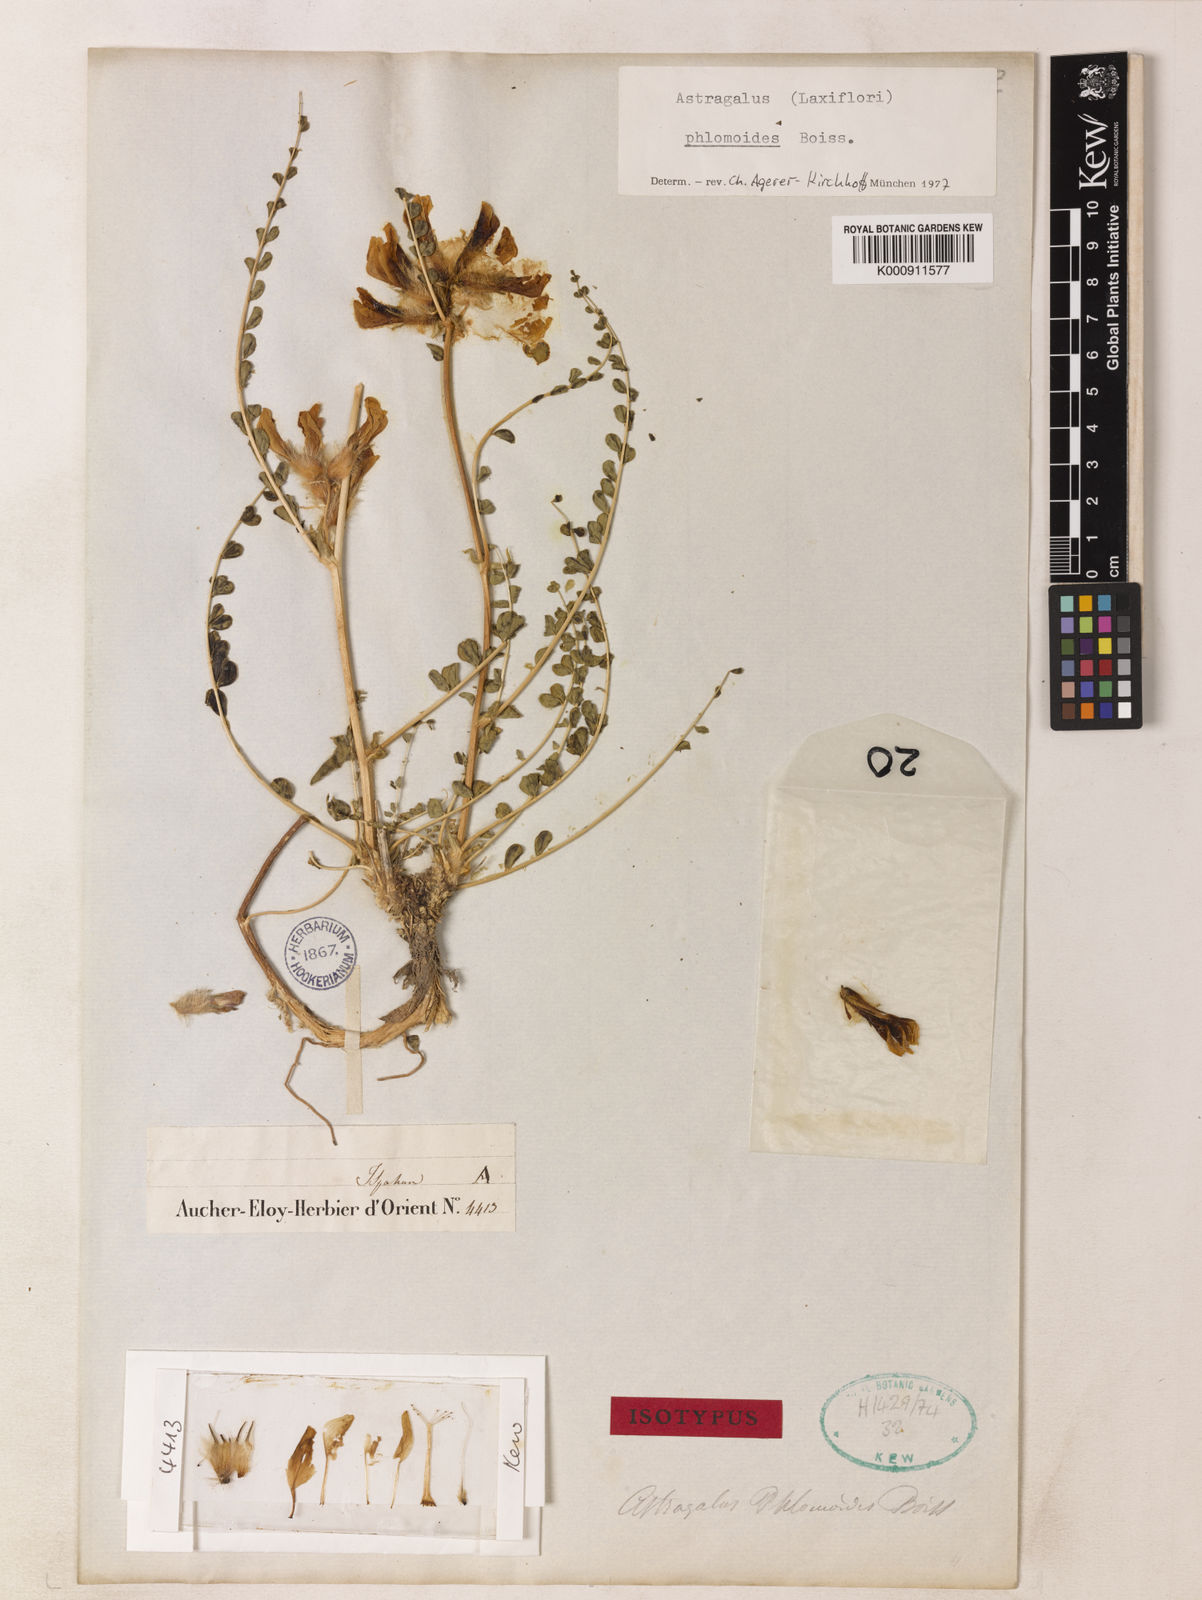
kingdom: Plantae
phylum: Tracheophyta
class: Magnoliopsida
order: Fabales
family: Fabaceae
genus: Astragalus
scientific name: Astragalus phlomoides
